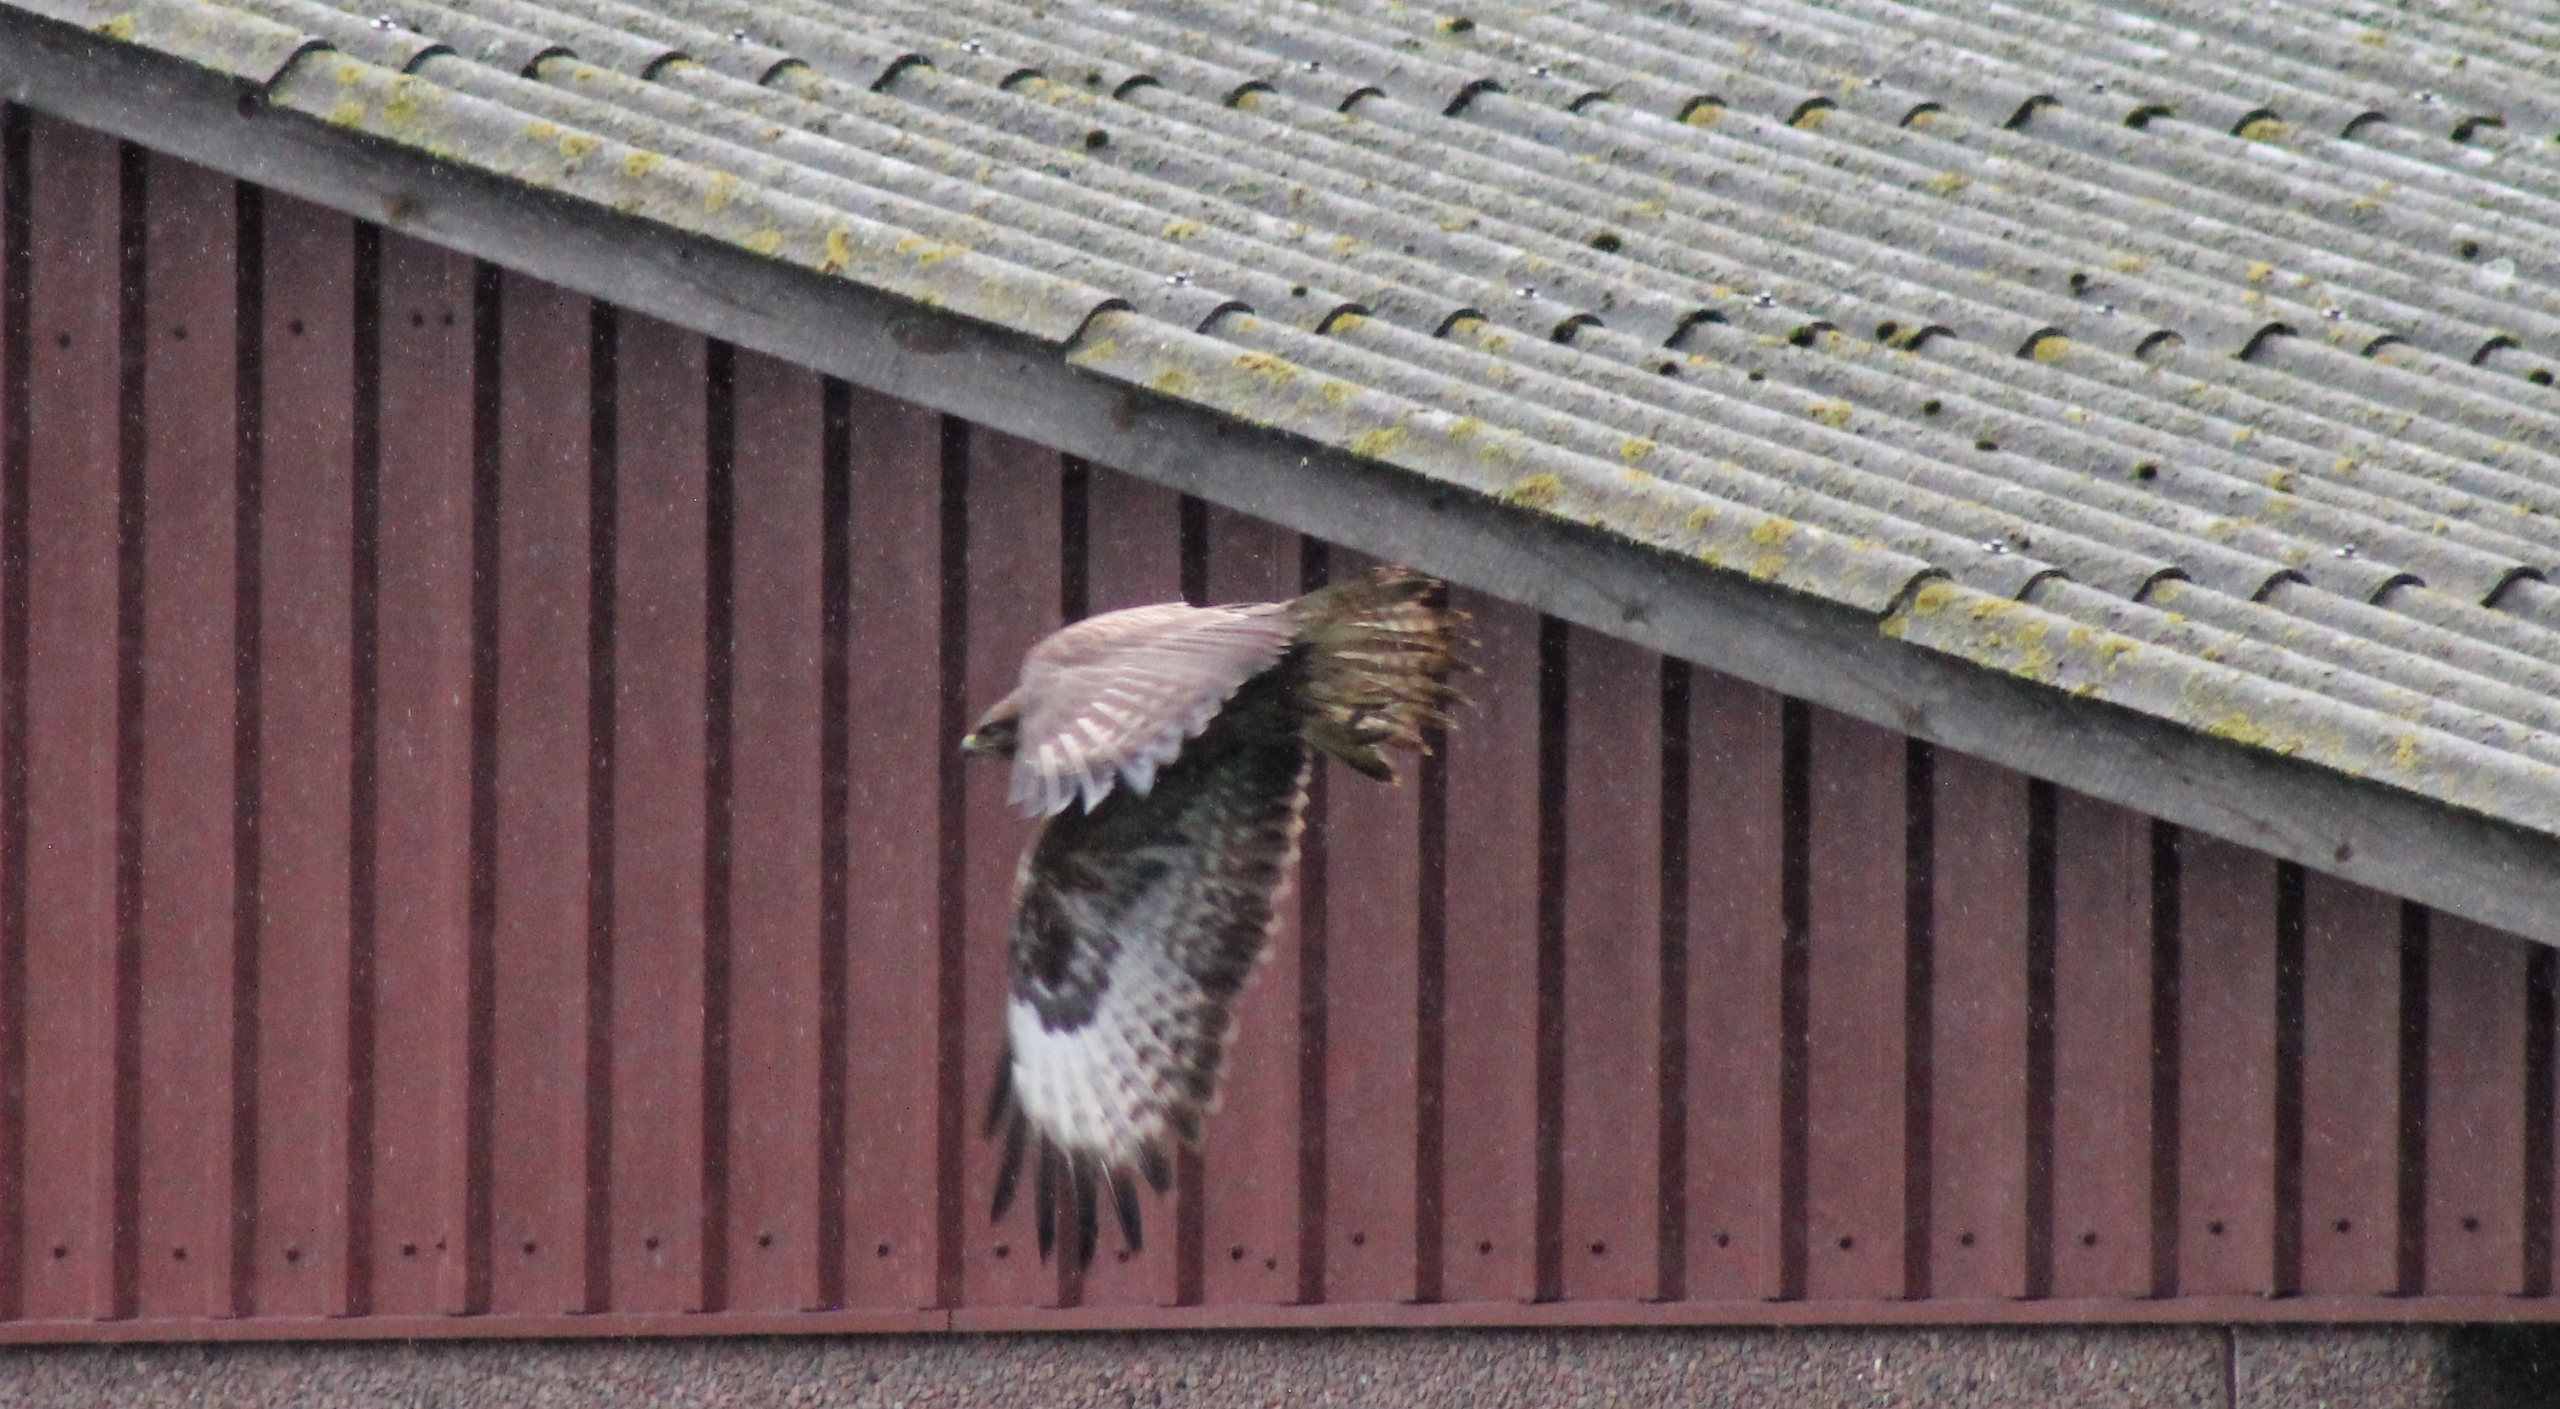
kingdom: Animalia
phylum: Chordata
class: Aves
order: Accipitriformes
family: Accipitridae
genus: Buteo
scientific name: Buteo buteo
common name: Musvåge
